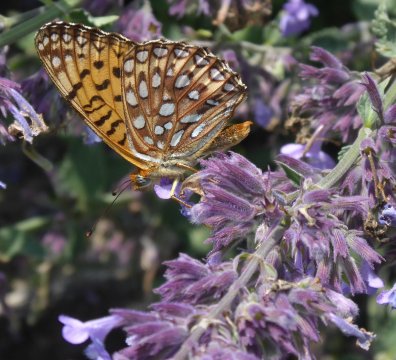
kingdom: Animalia
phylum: Arthropoda
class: Insecta
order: Lepidoptera
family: Nymphalidae
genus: Speyeria
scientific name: Speyeria aphrodite
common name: Aphrodite Fritillary
